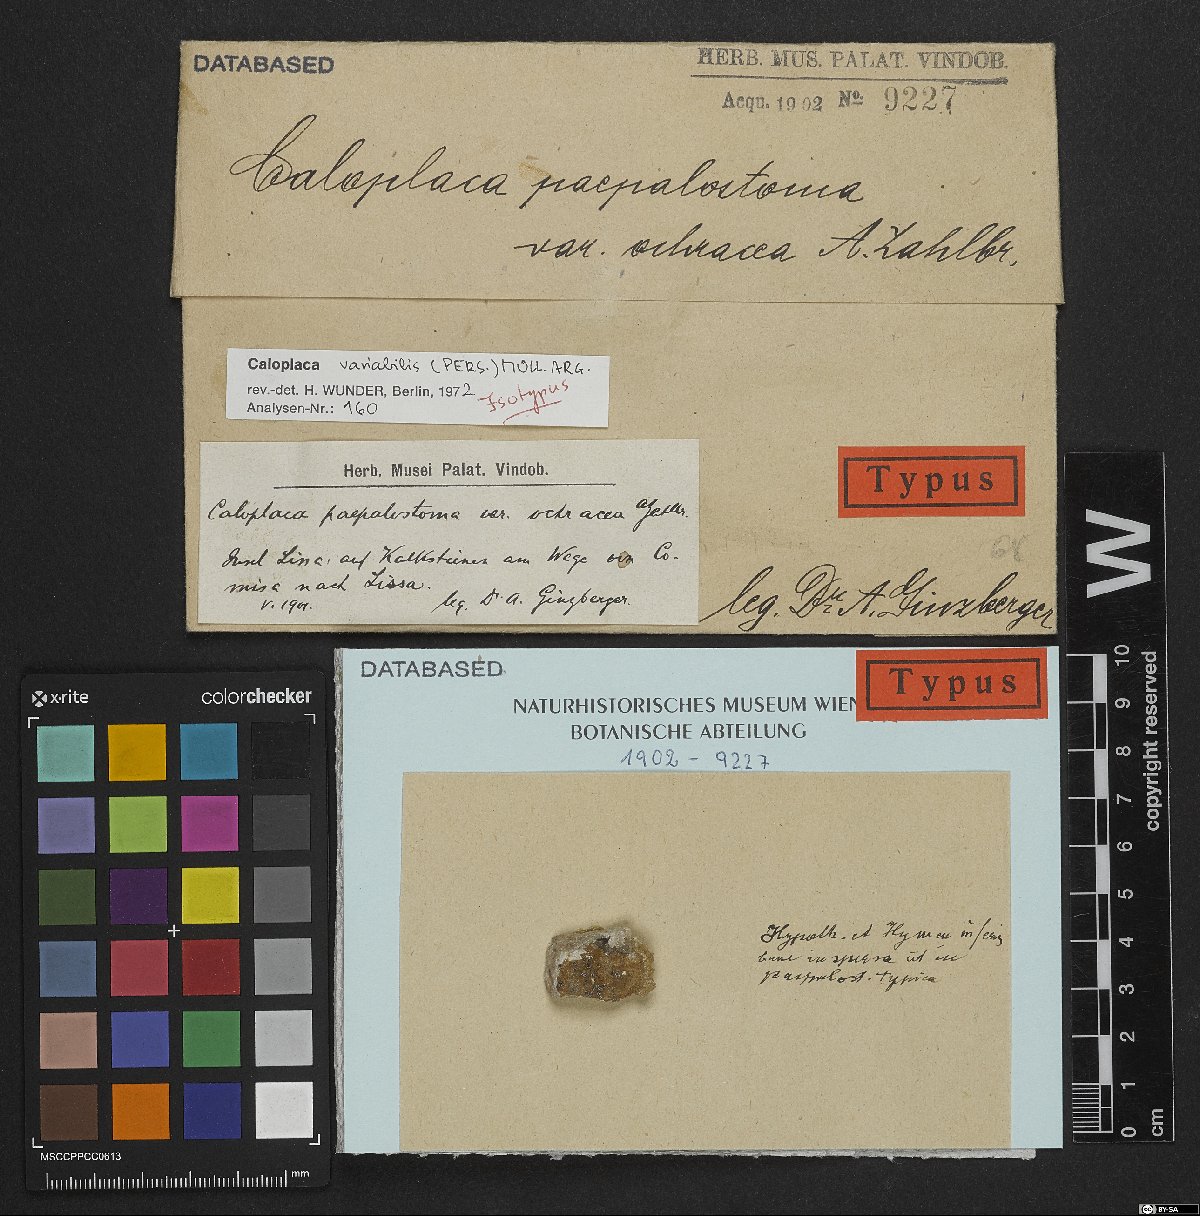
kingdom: Fungi
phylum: Ascomycota
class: Lecanoromycetes
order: Teloschistales
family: Teloschistaceae
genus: Pyrenodesmia
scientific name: Pyrenodesmia variabilis
